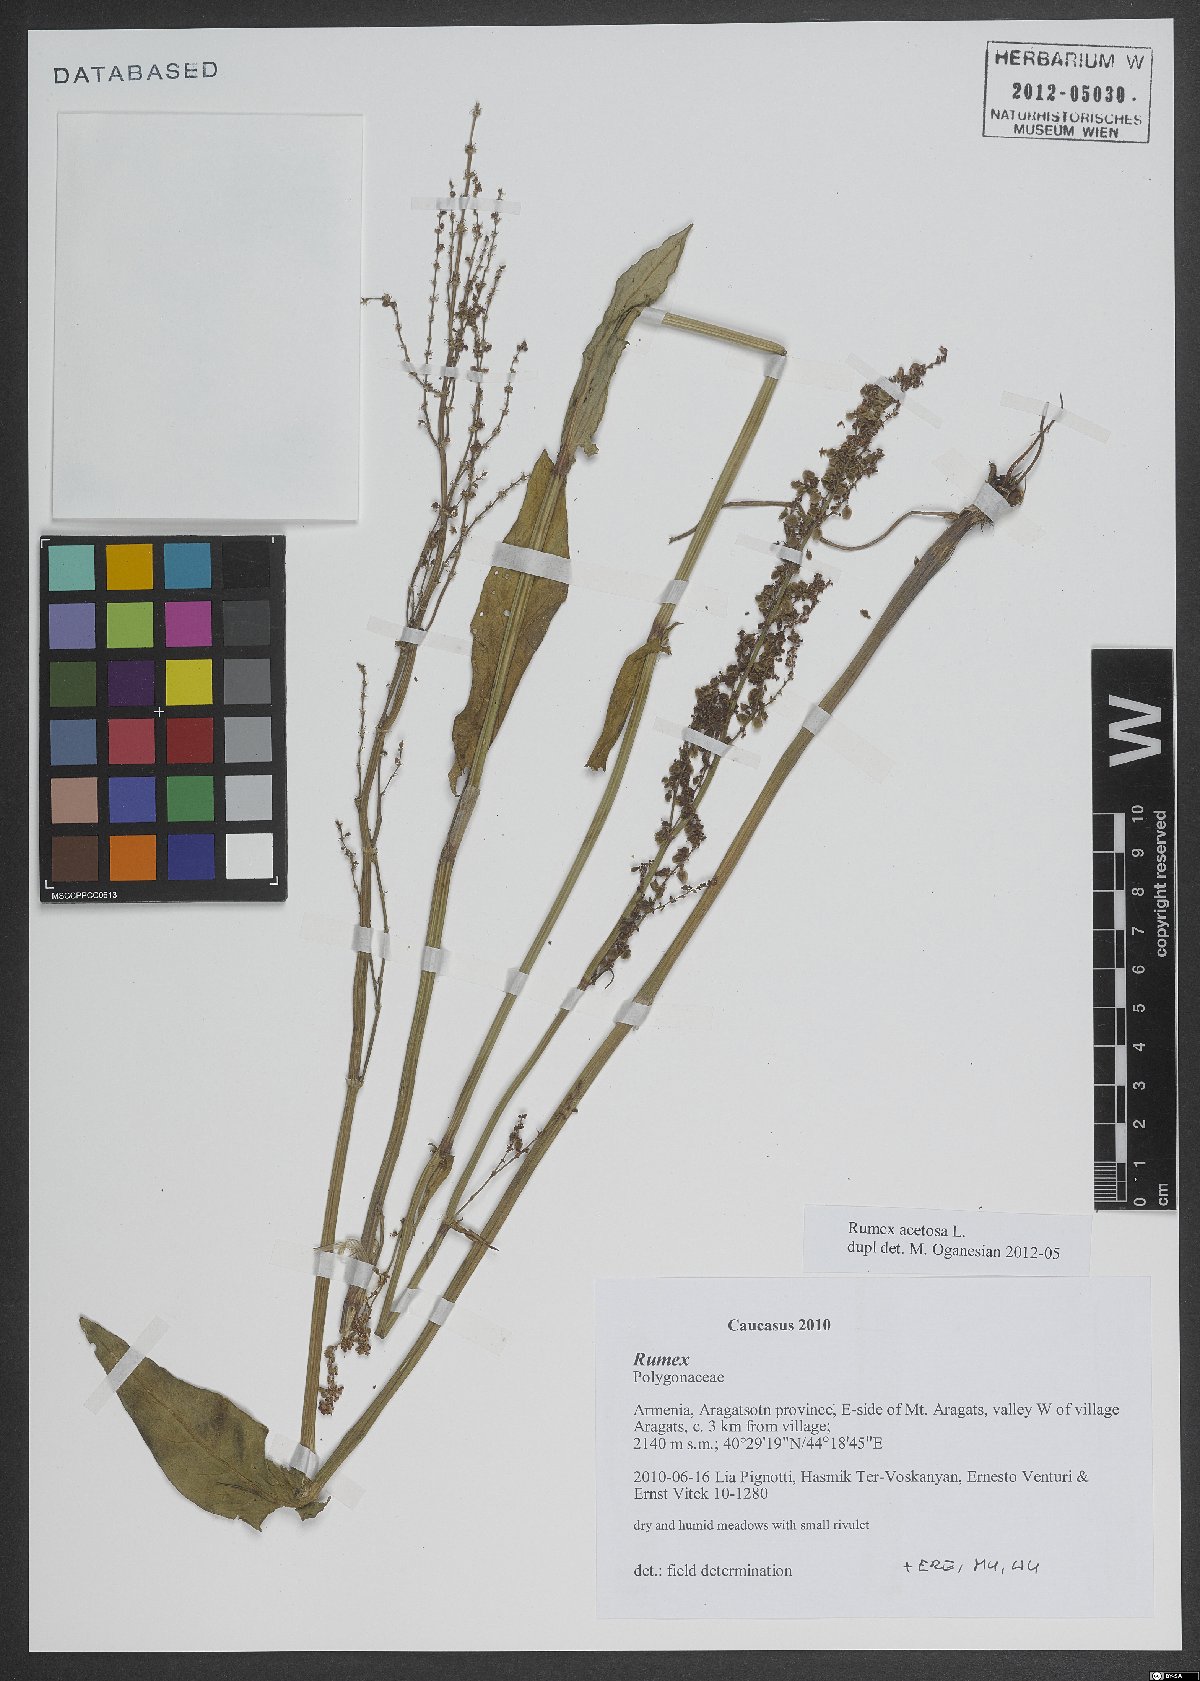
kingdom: Plantae
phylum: Tracheophyta
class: Magnoliopsida
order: Caryophyllales
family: Polygonaceae
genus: Rumex
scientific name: Rumex acetosa
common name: Garden sorrel
